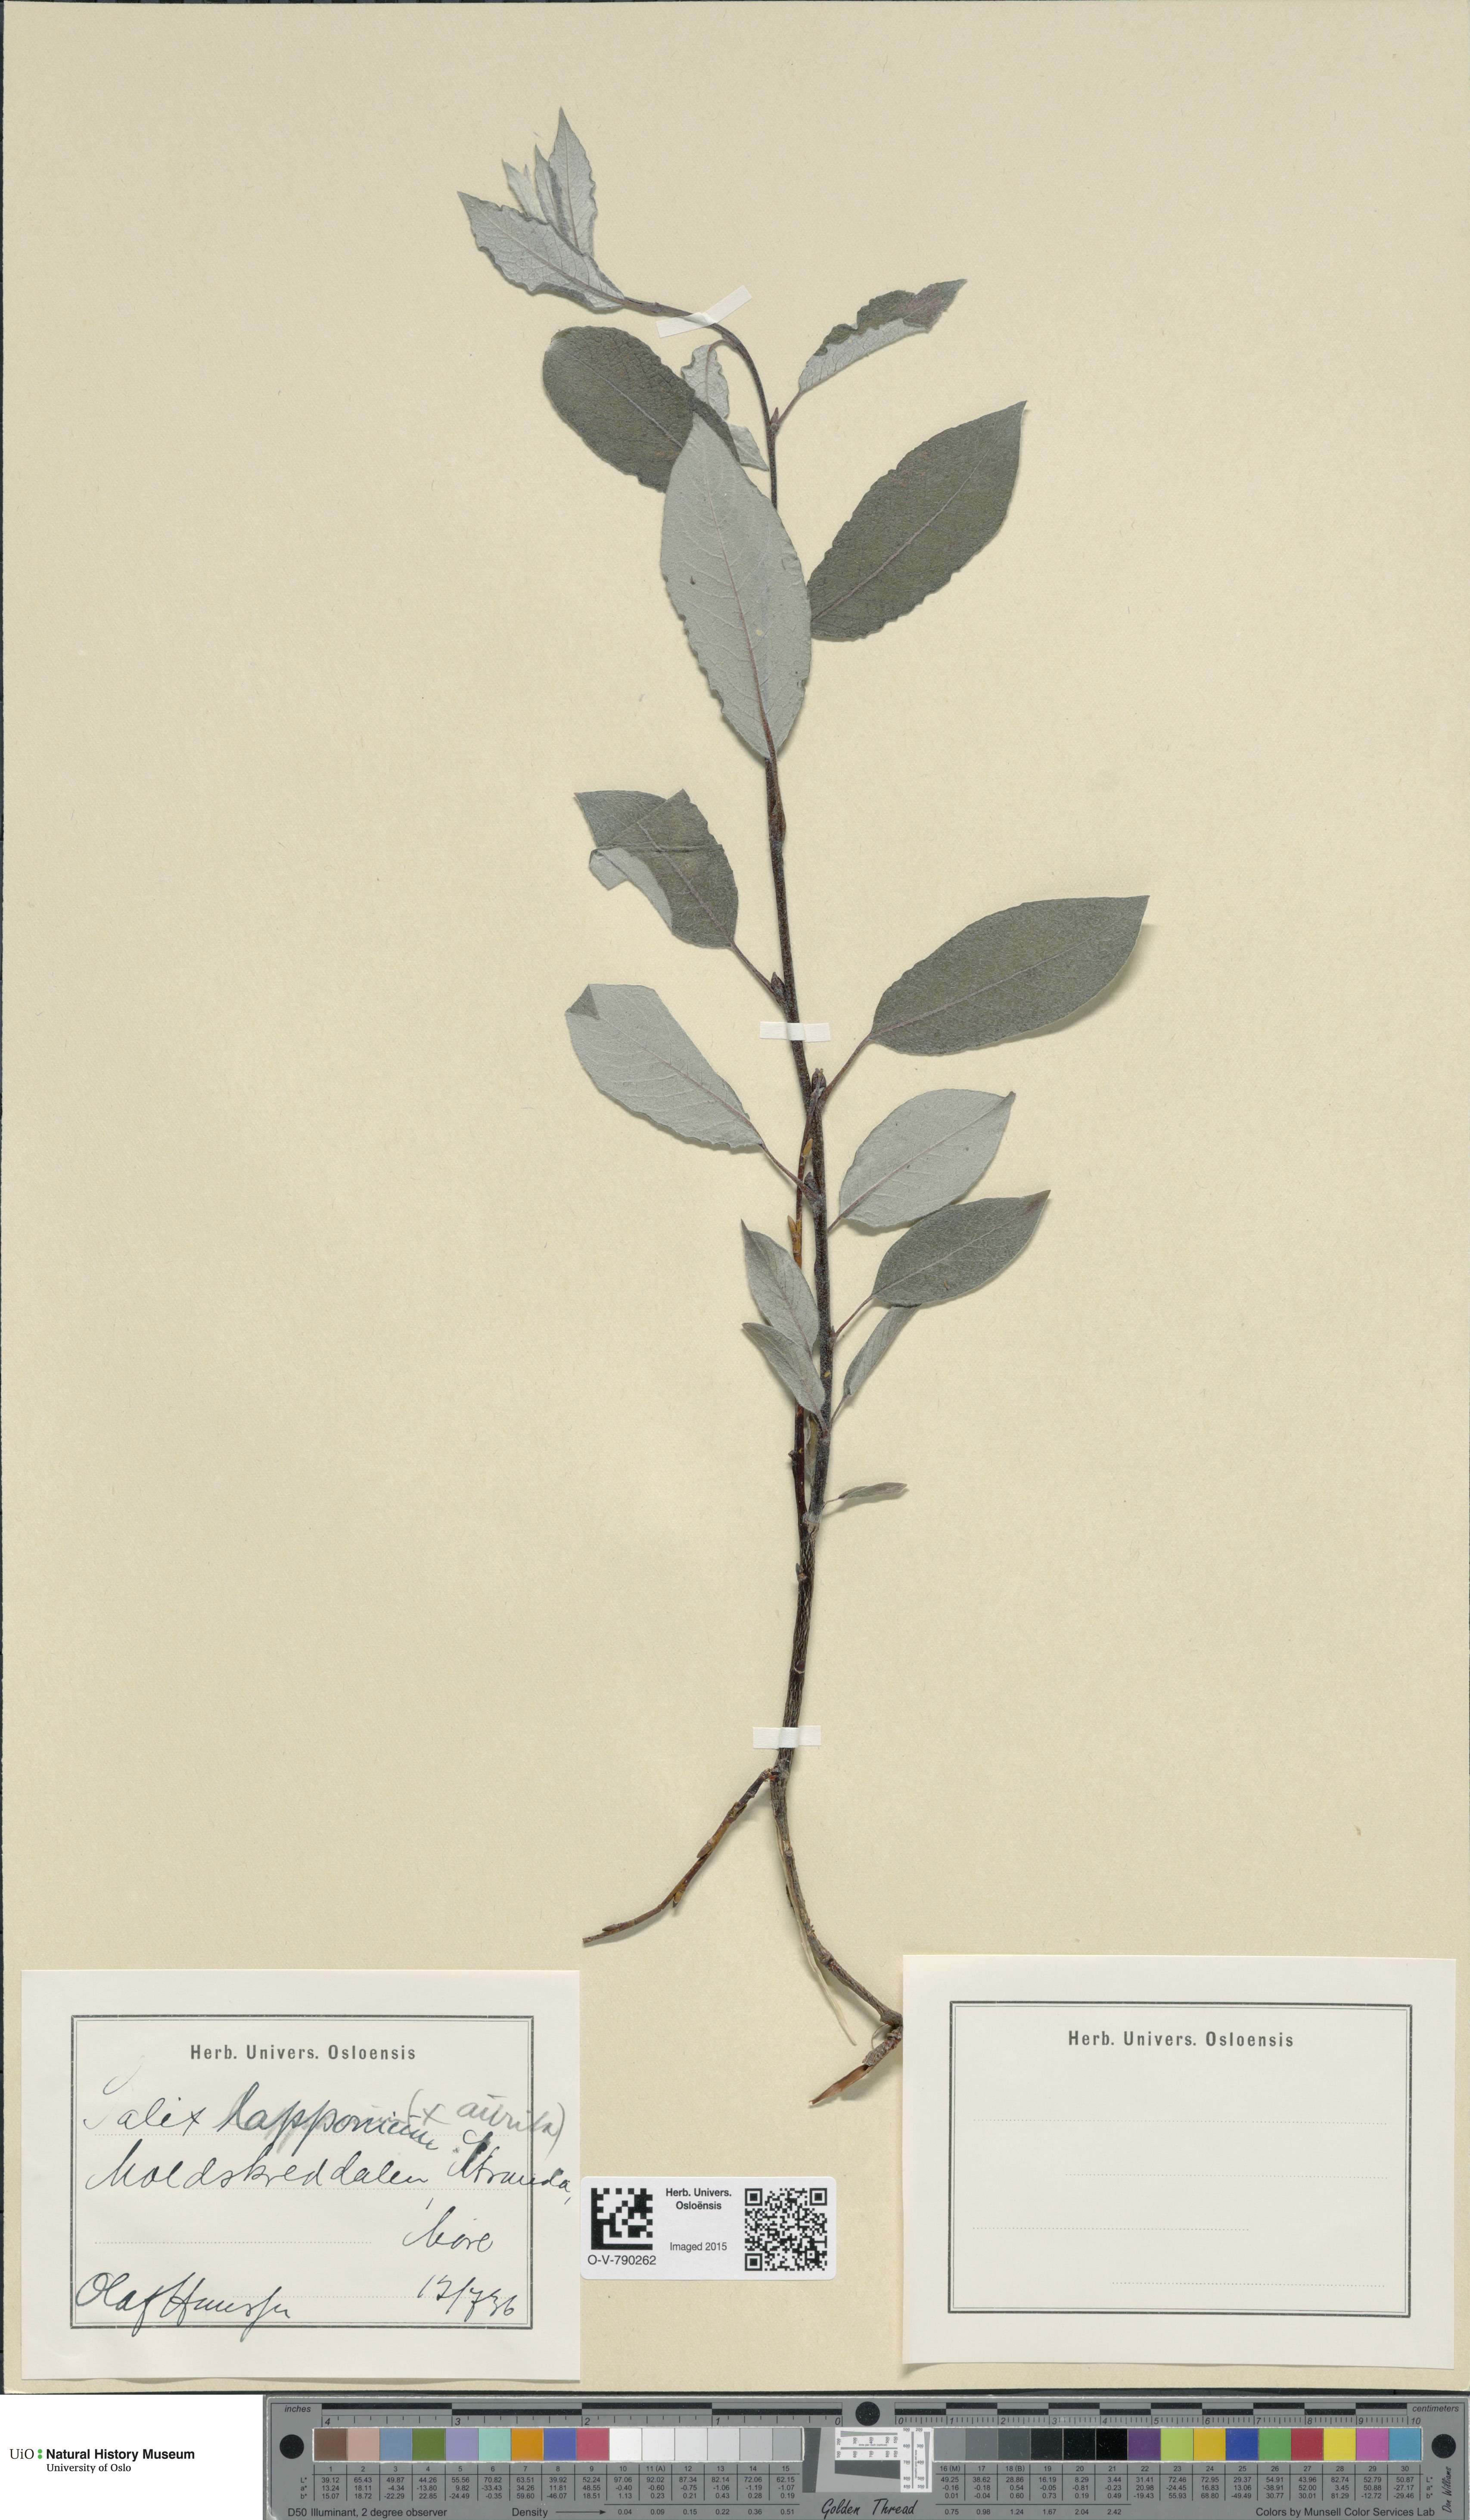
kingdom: Plantae
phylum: Tracheophyta
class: Magnoliopsida
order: Malpighiales
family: Salicaceae
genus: Salix
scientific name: Salix lapponum
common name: Downy willow
